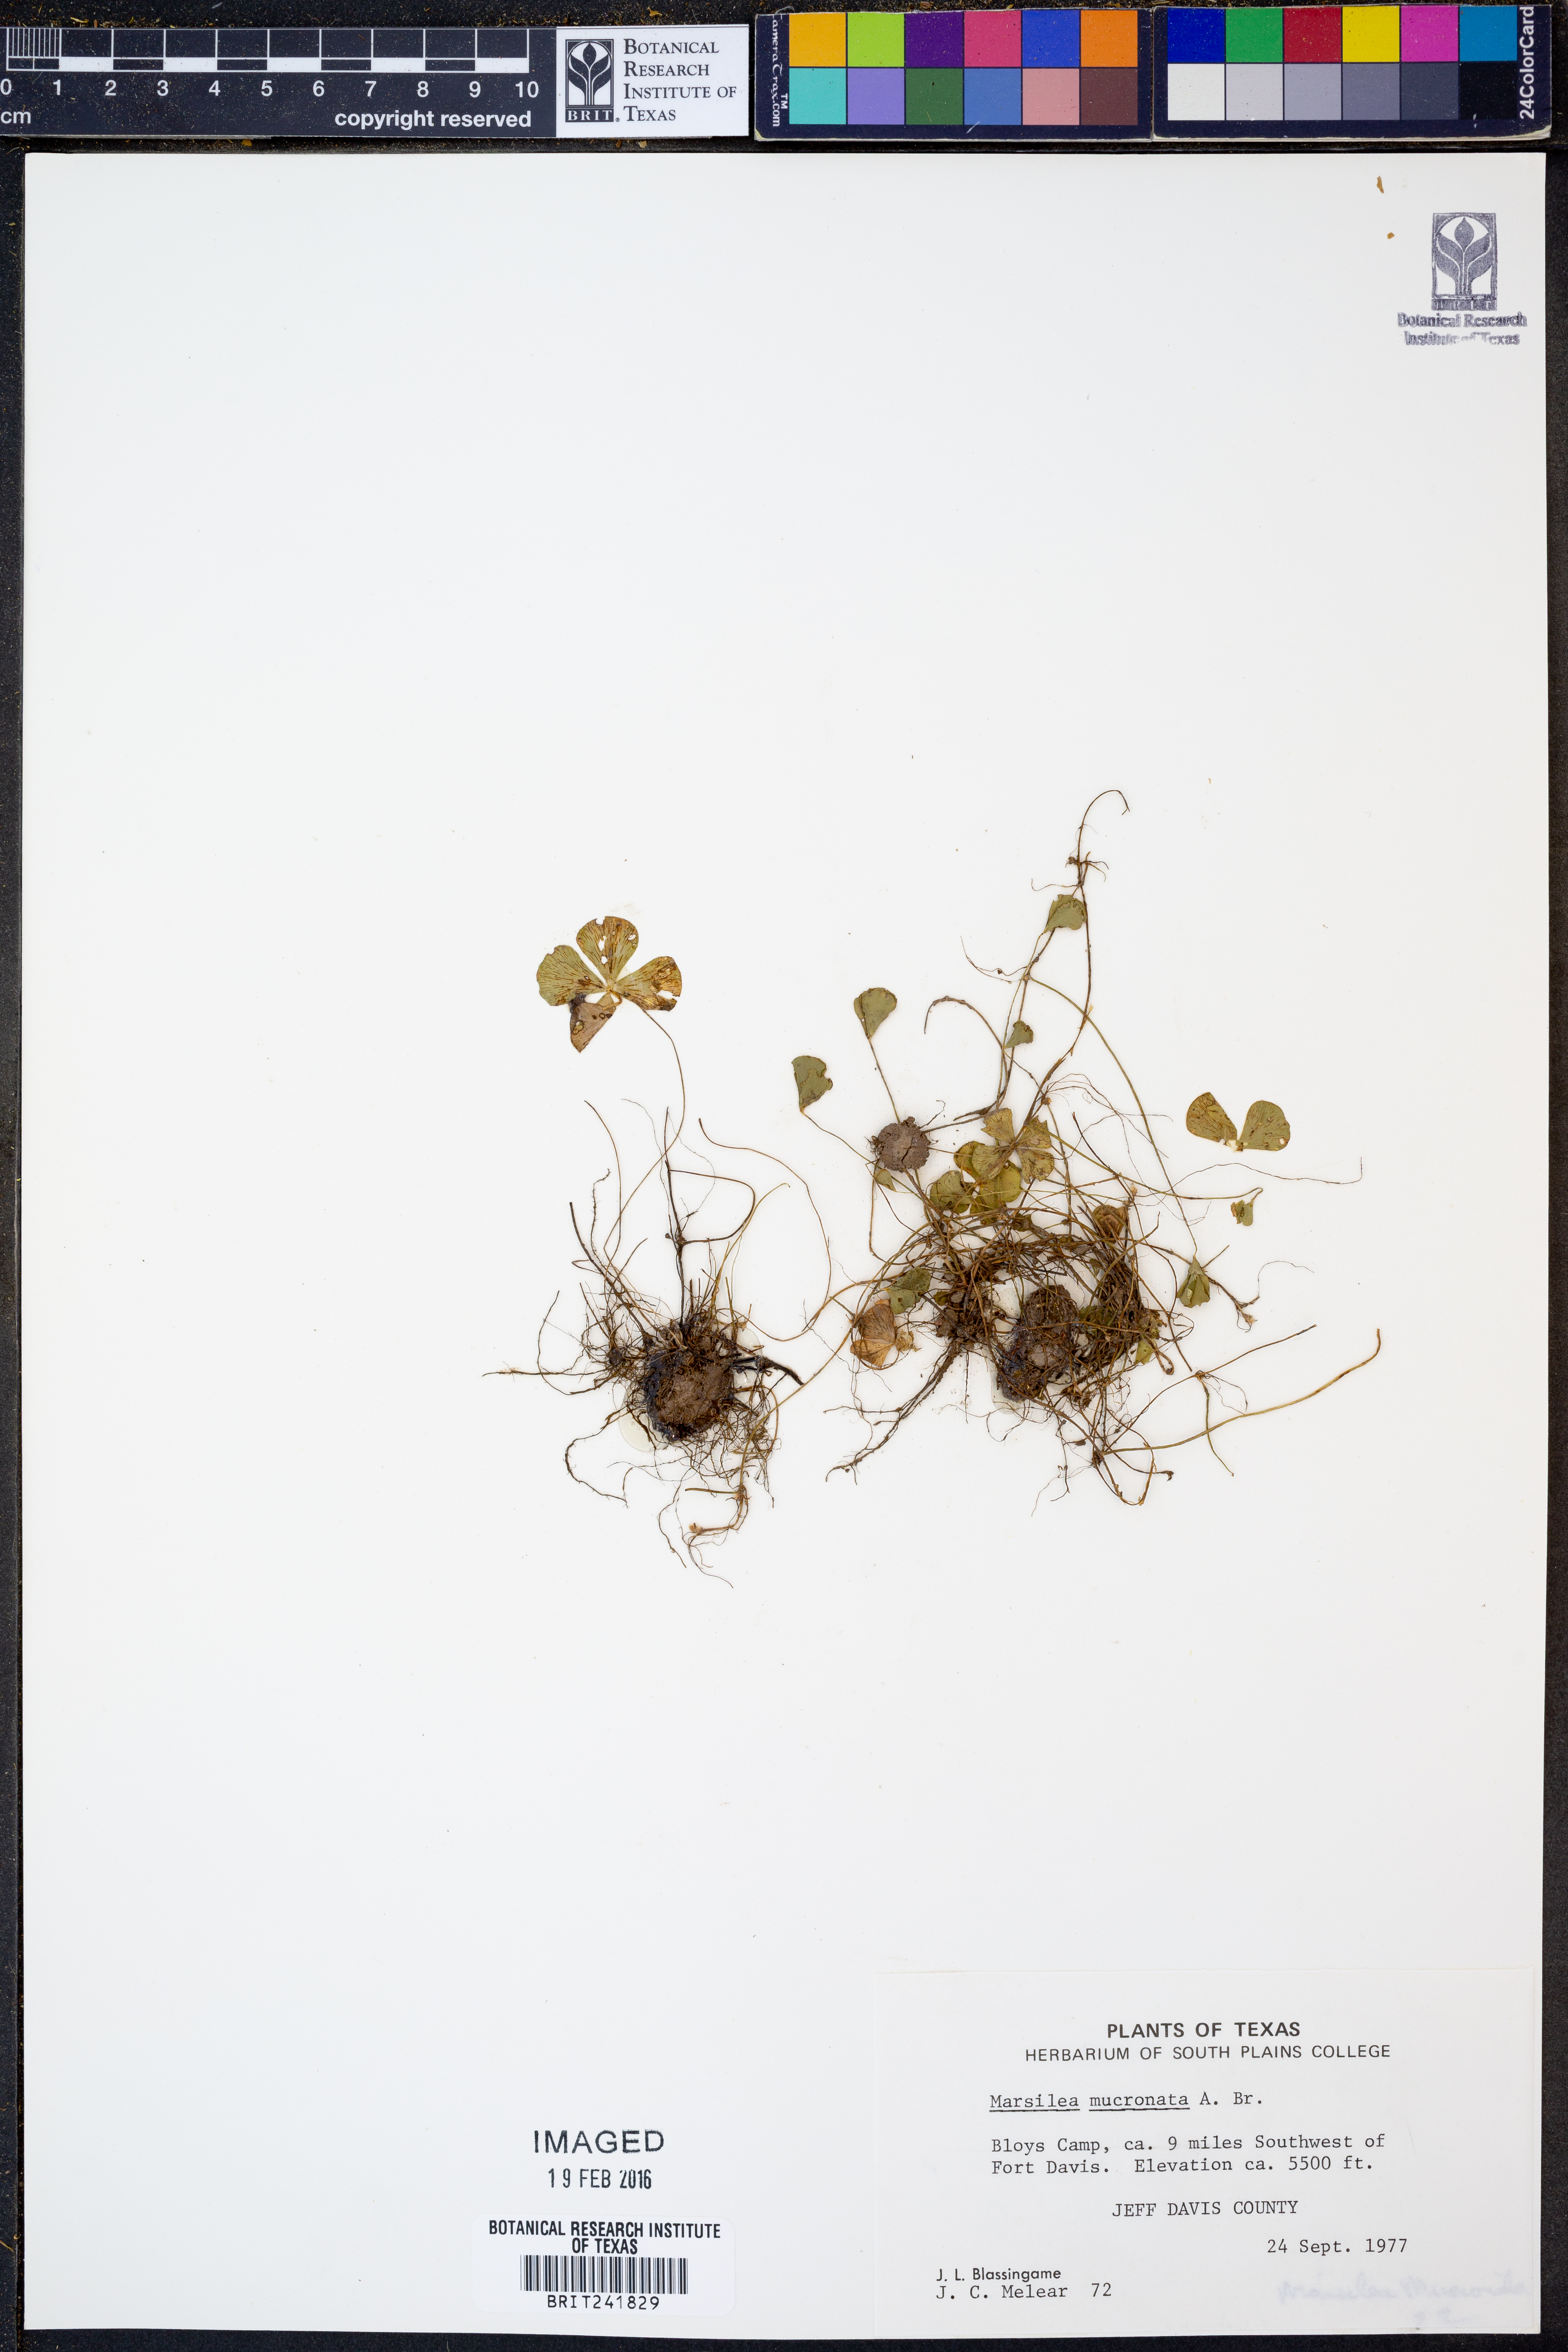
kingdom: Plantae
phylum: Tracheophyta
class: Polypodiopsida
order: Salviniales
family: Marsileaceae
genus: Marsilea
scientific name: Marsilea vestita
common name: Hooked-pepperwort
